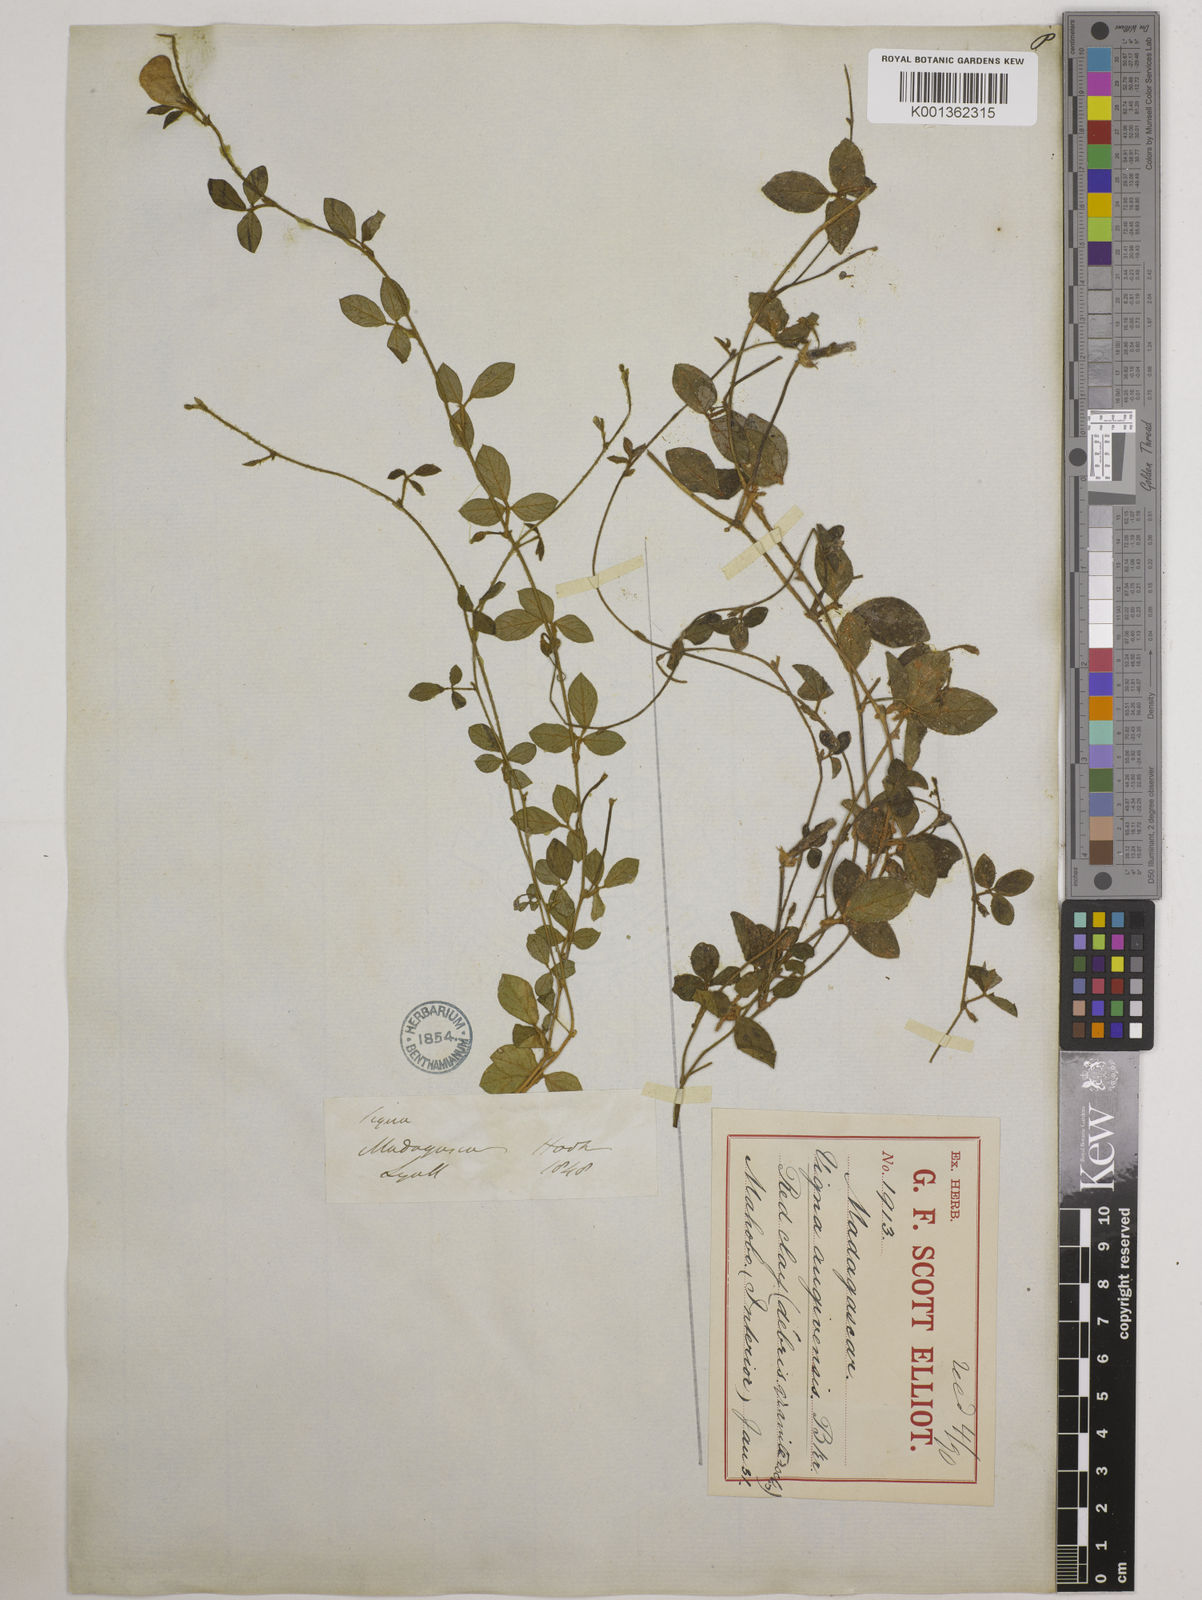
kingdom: Plantae
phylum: Tracheophyta
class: Magnoliopsida
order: Fabales
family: Fabaceae
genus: Vigna
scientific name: Vigna angivensis
